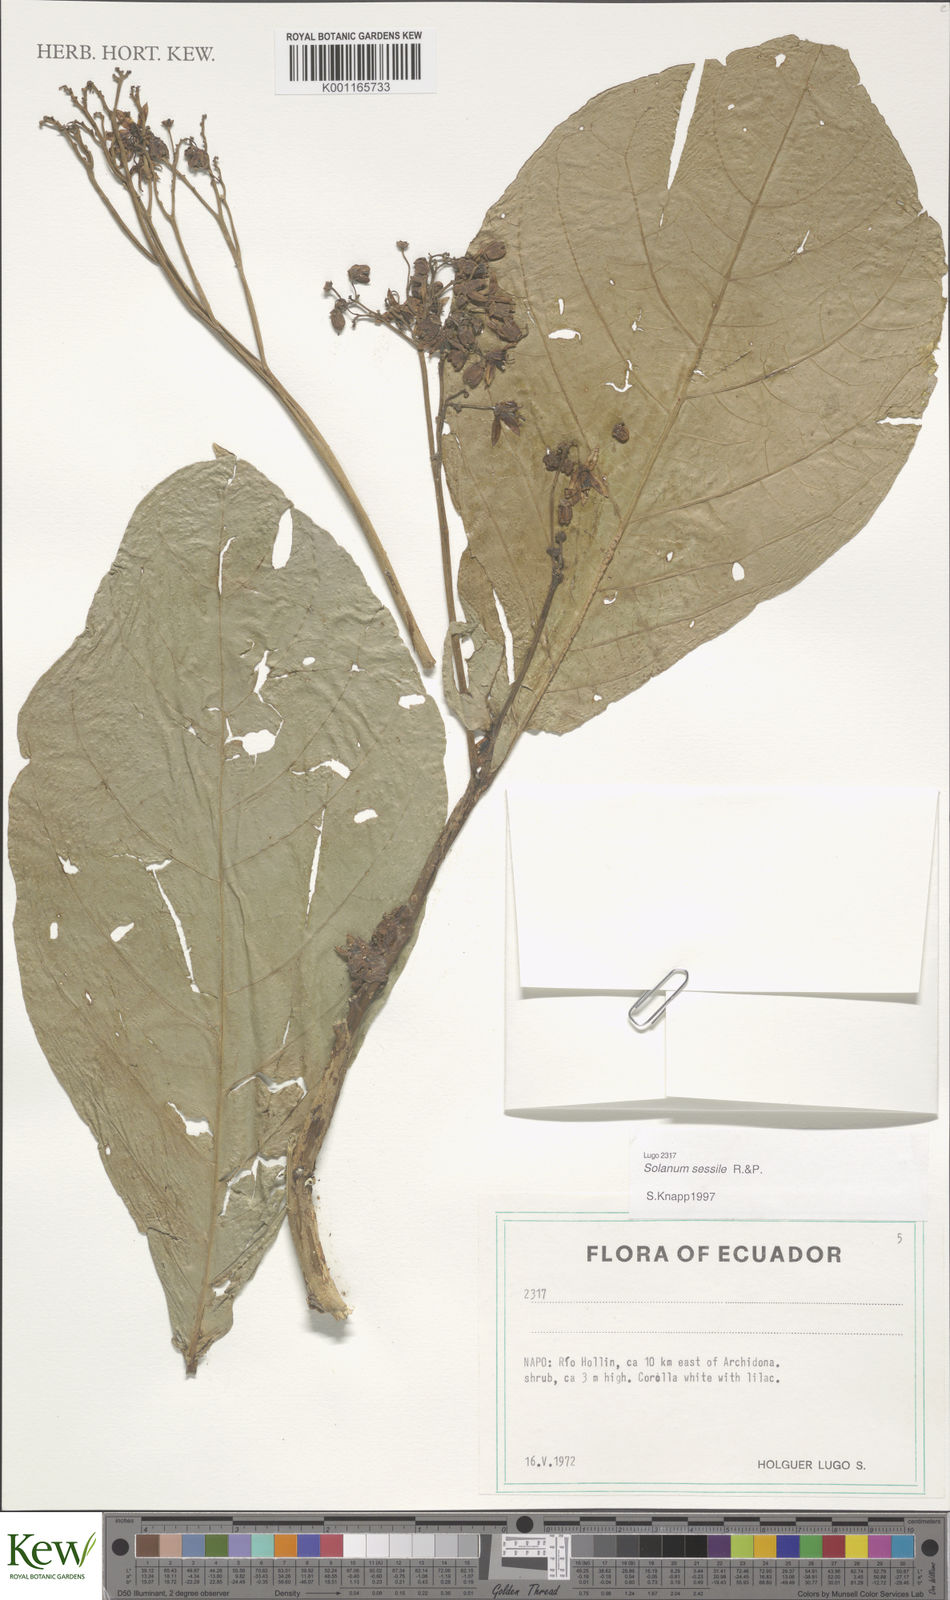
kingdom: Plantae
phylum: Tracheophyta
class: Magnoliopsida
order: Solanales
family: Solanaceae
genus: Solanum
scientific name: Solanum sessile
